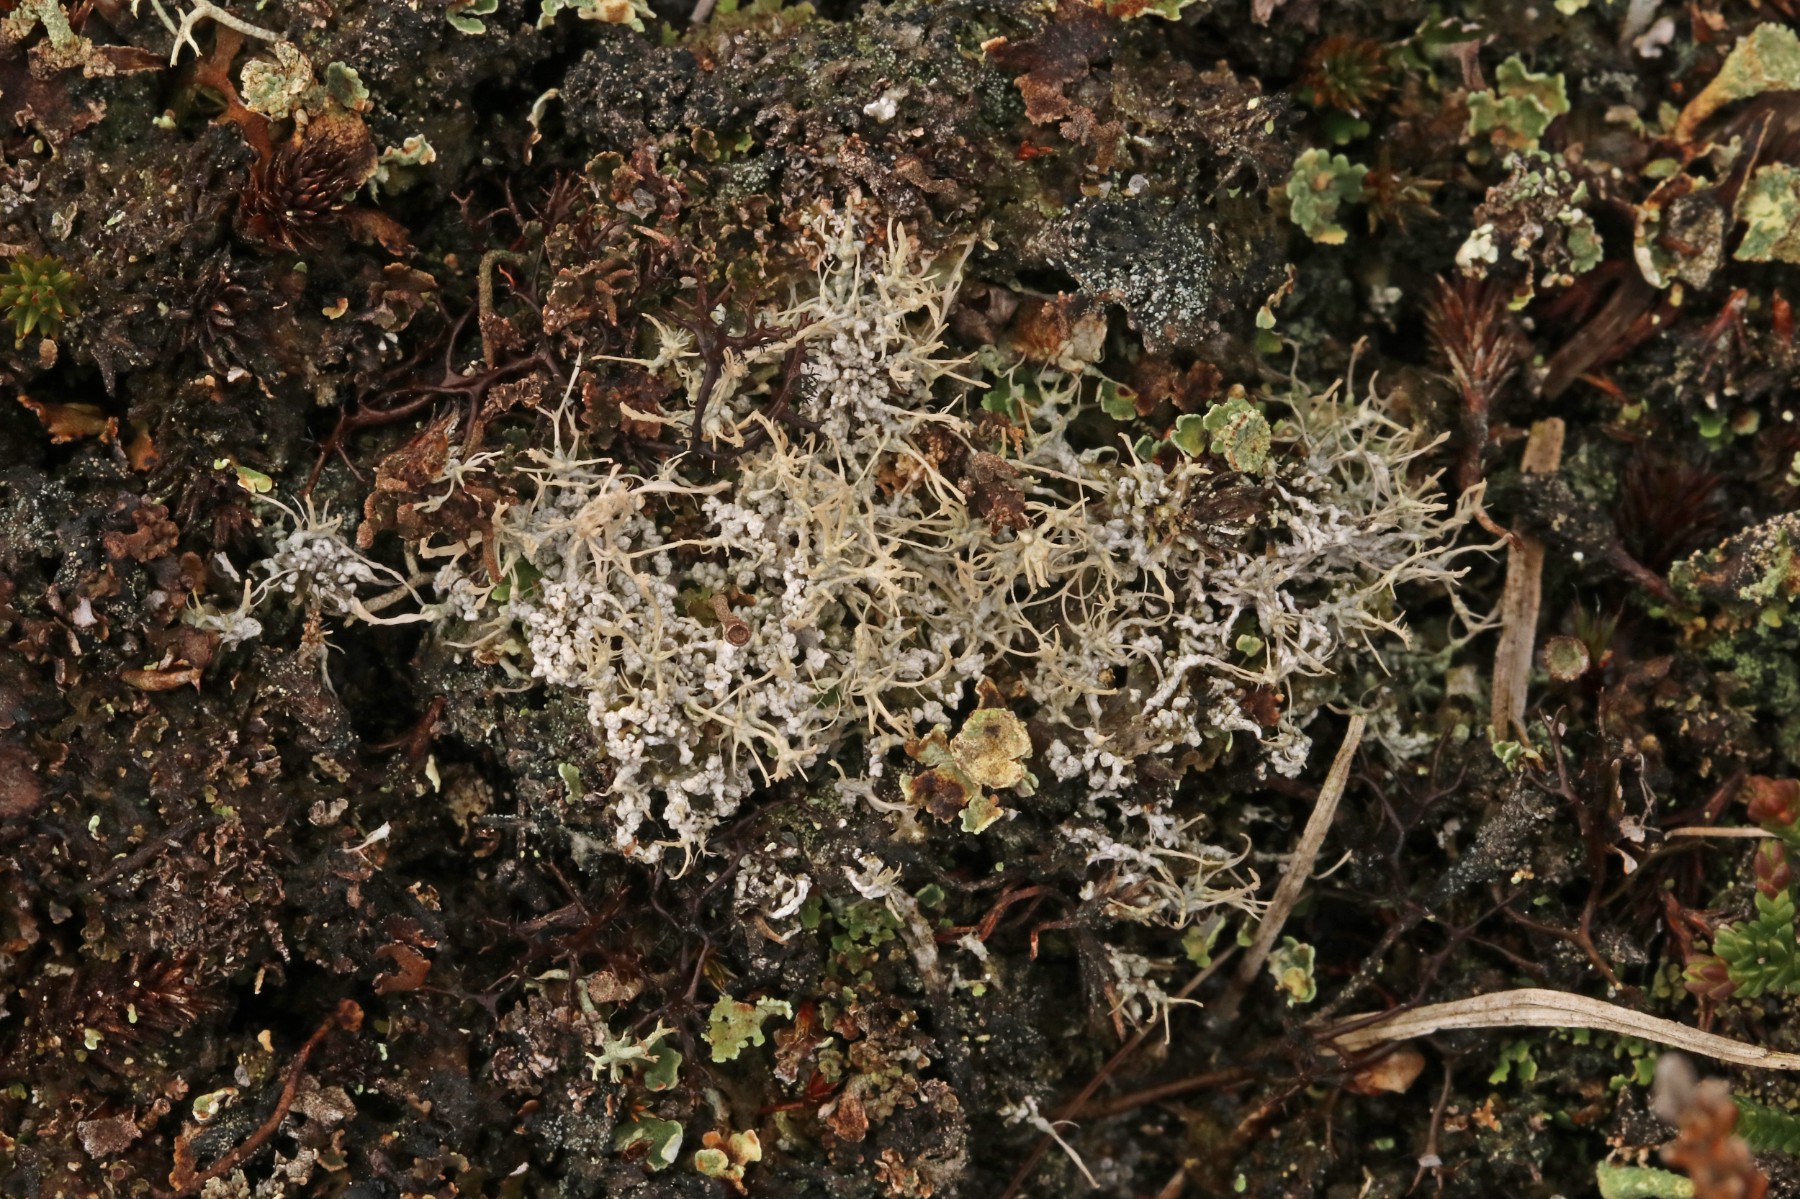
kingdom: Fungi
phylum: Ascomycota
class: Lecanoromycetes
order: Pertusariales
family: Ochrolechiaceae
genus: Ochrolechia
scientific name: Ochrolechia frigida
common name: fjeld-blegskivelav
